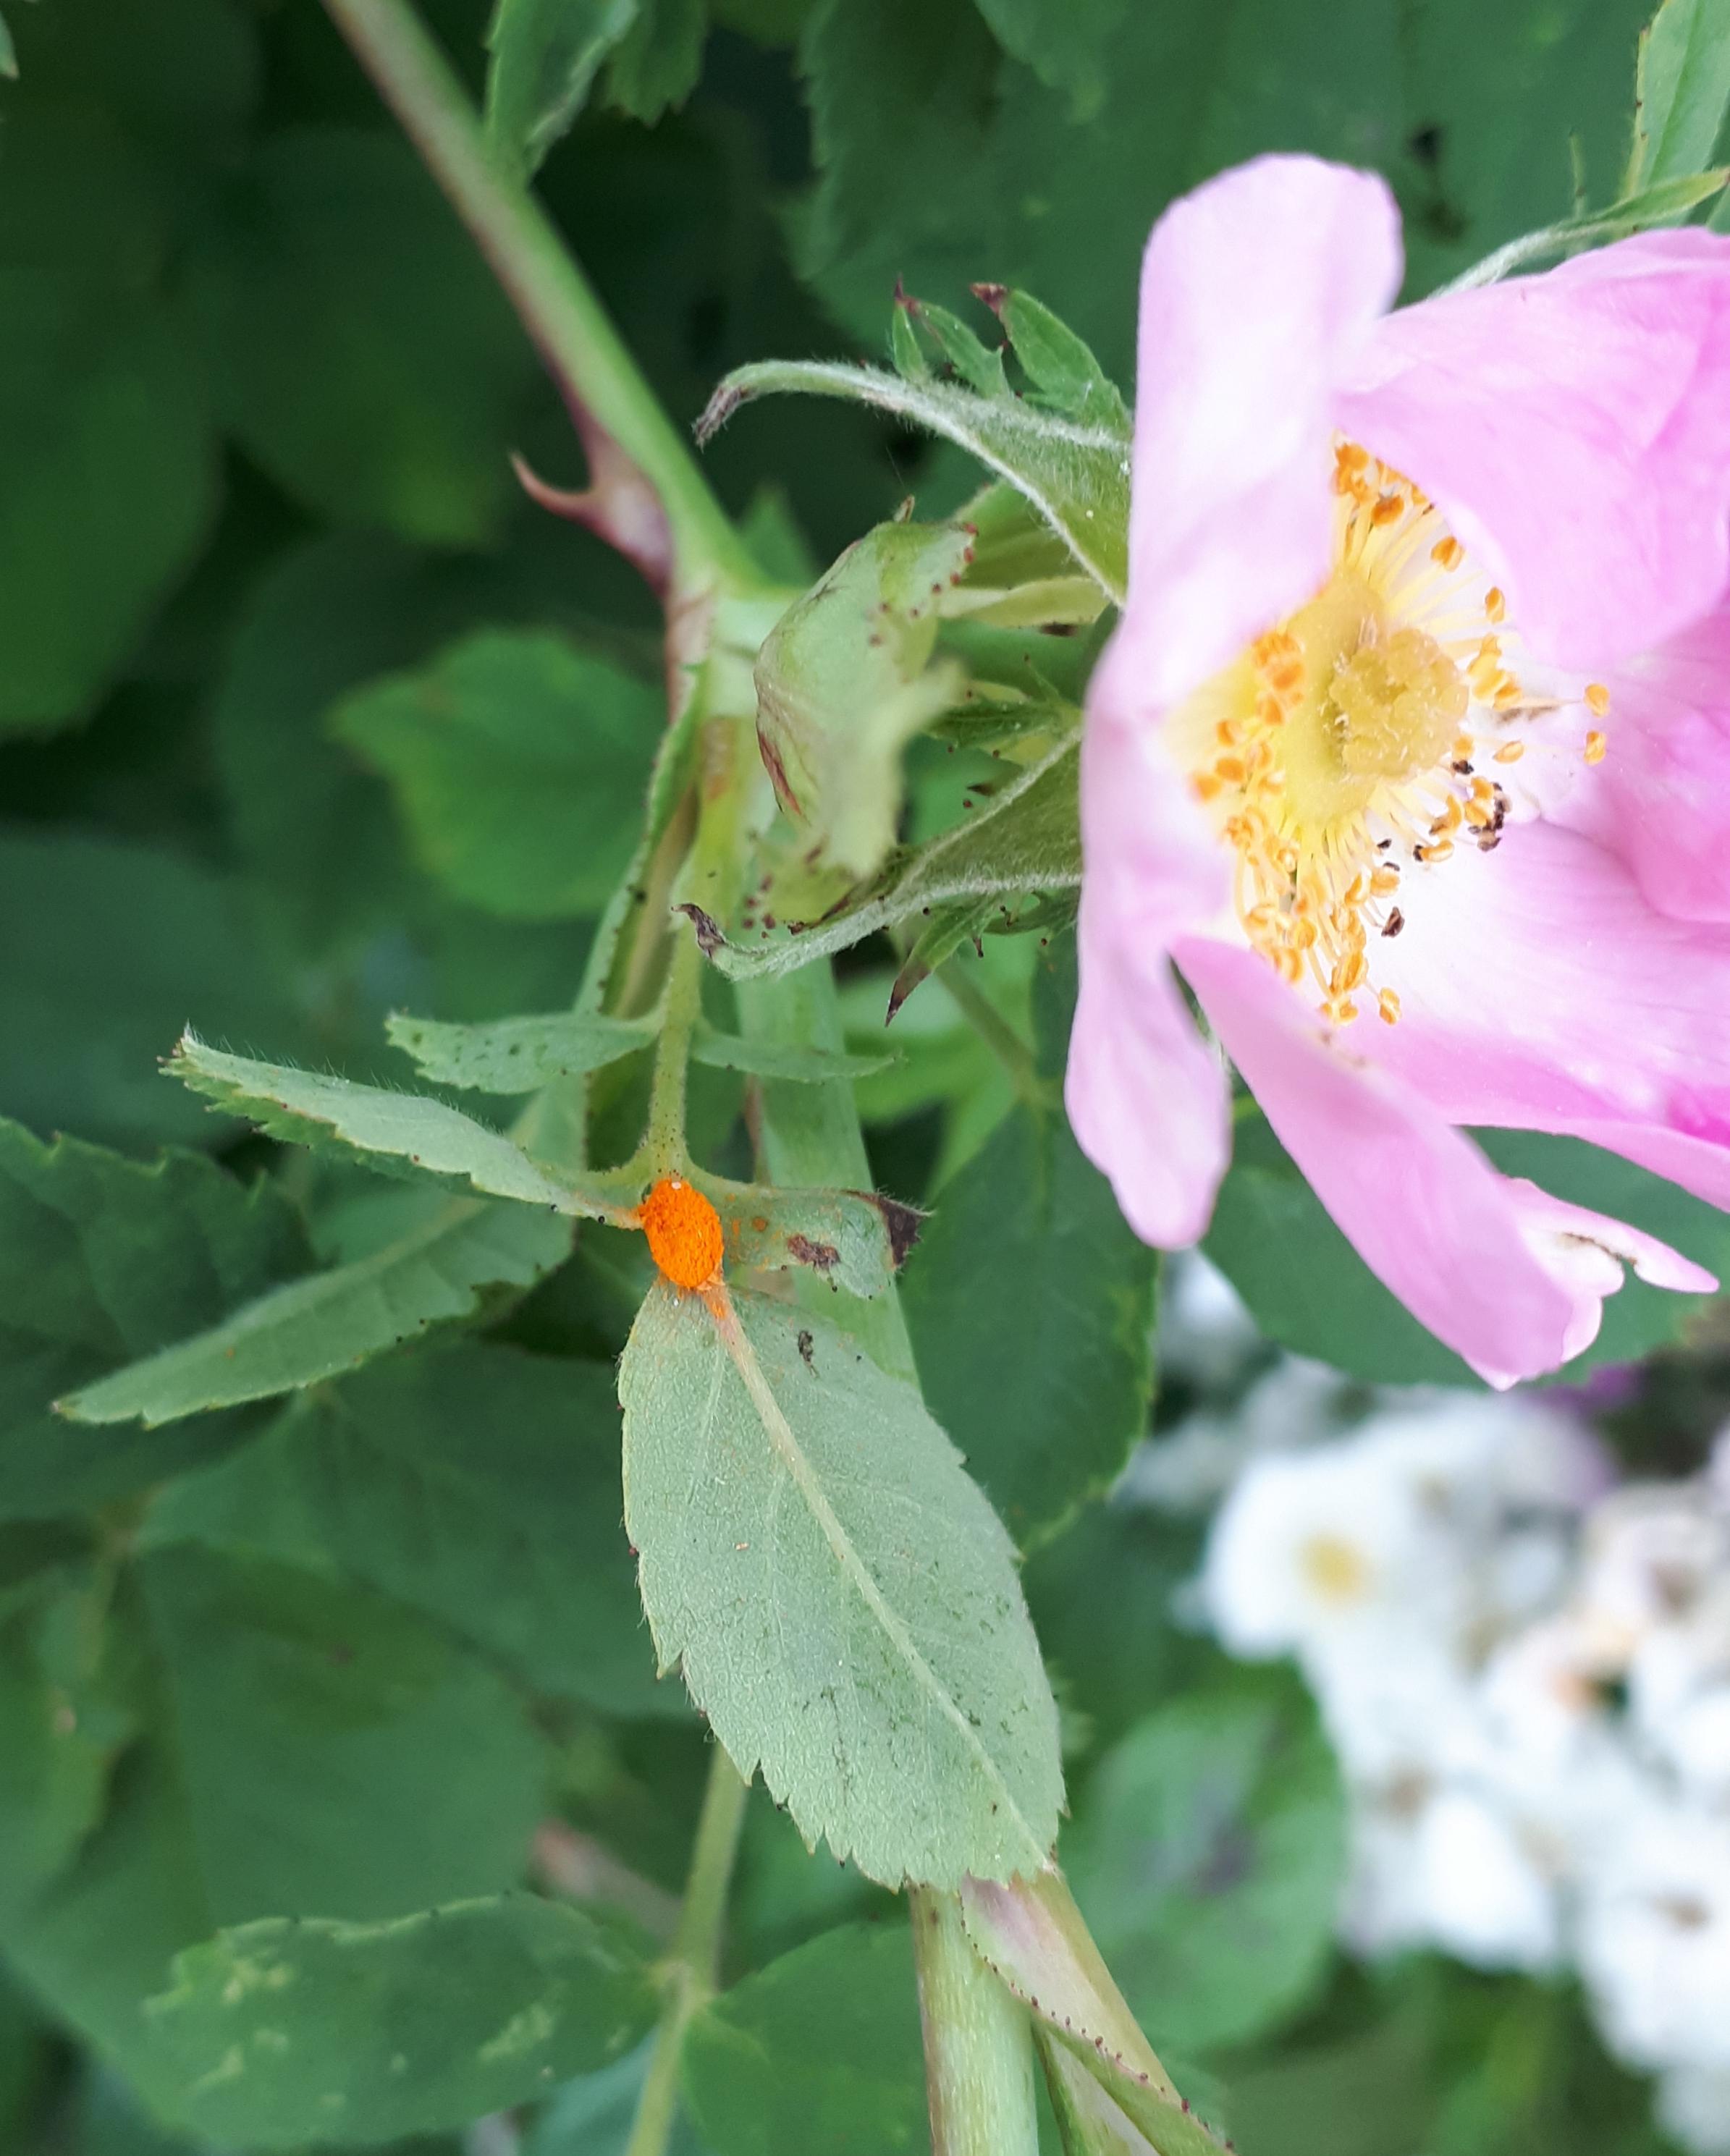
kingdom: Fungi
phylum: Basidiomycota
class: Pucciniomycetes
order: Pucciniales
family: Phragmidiaceae
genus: Phragmidium
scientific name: Phragmidium
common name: flercellerust
